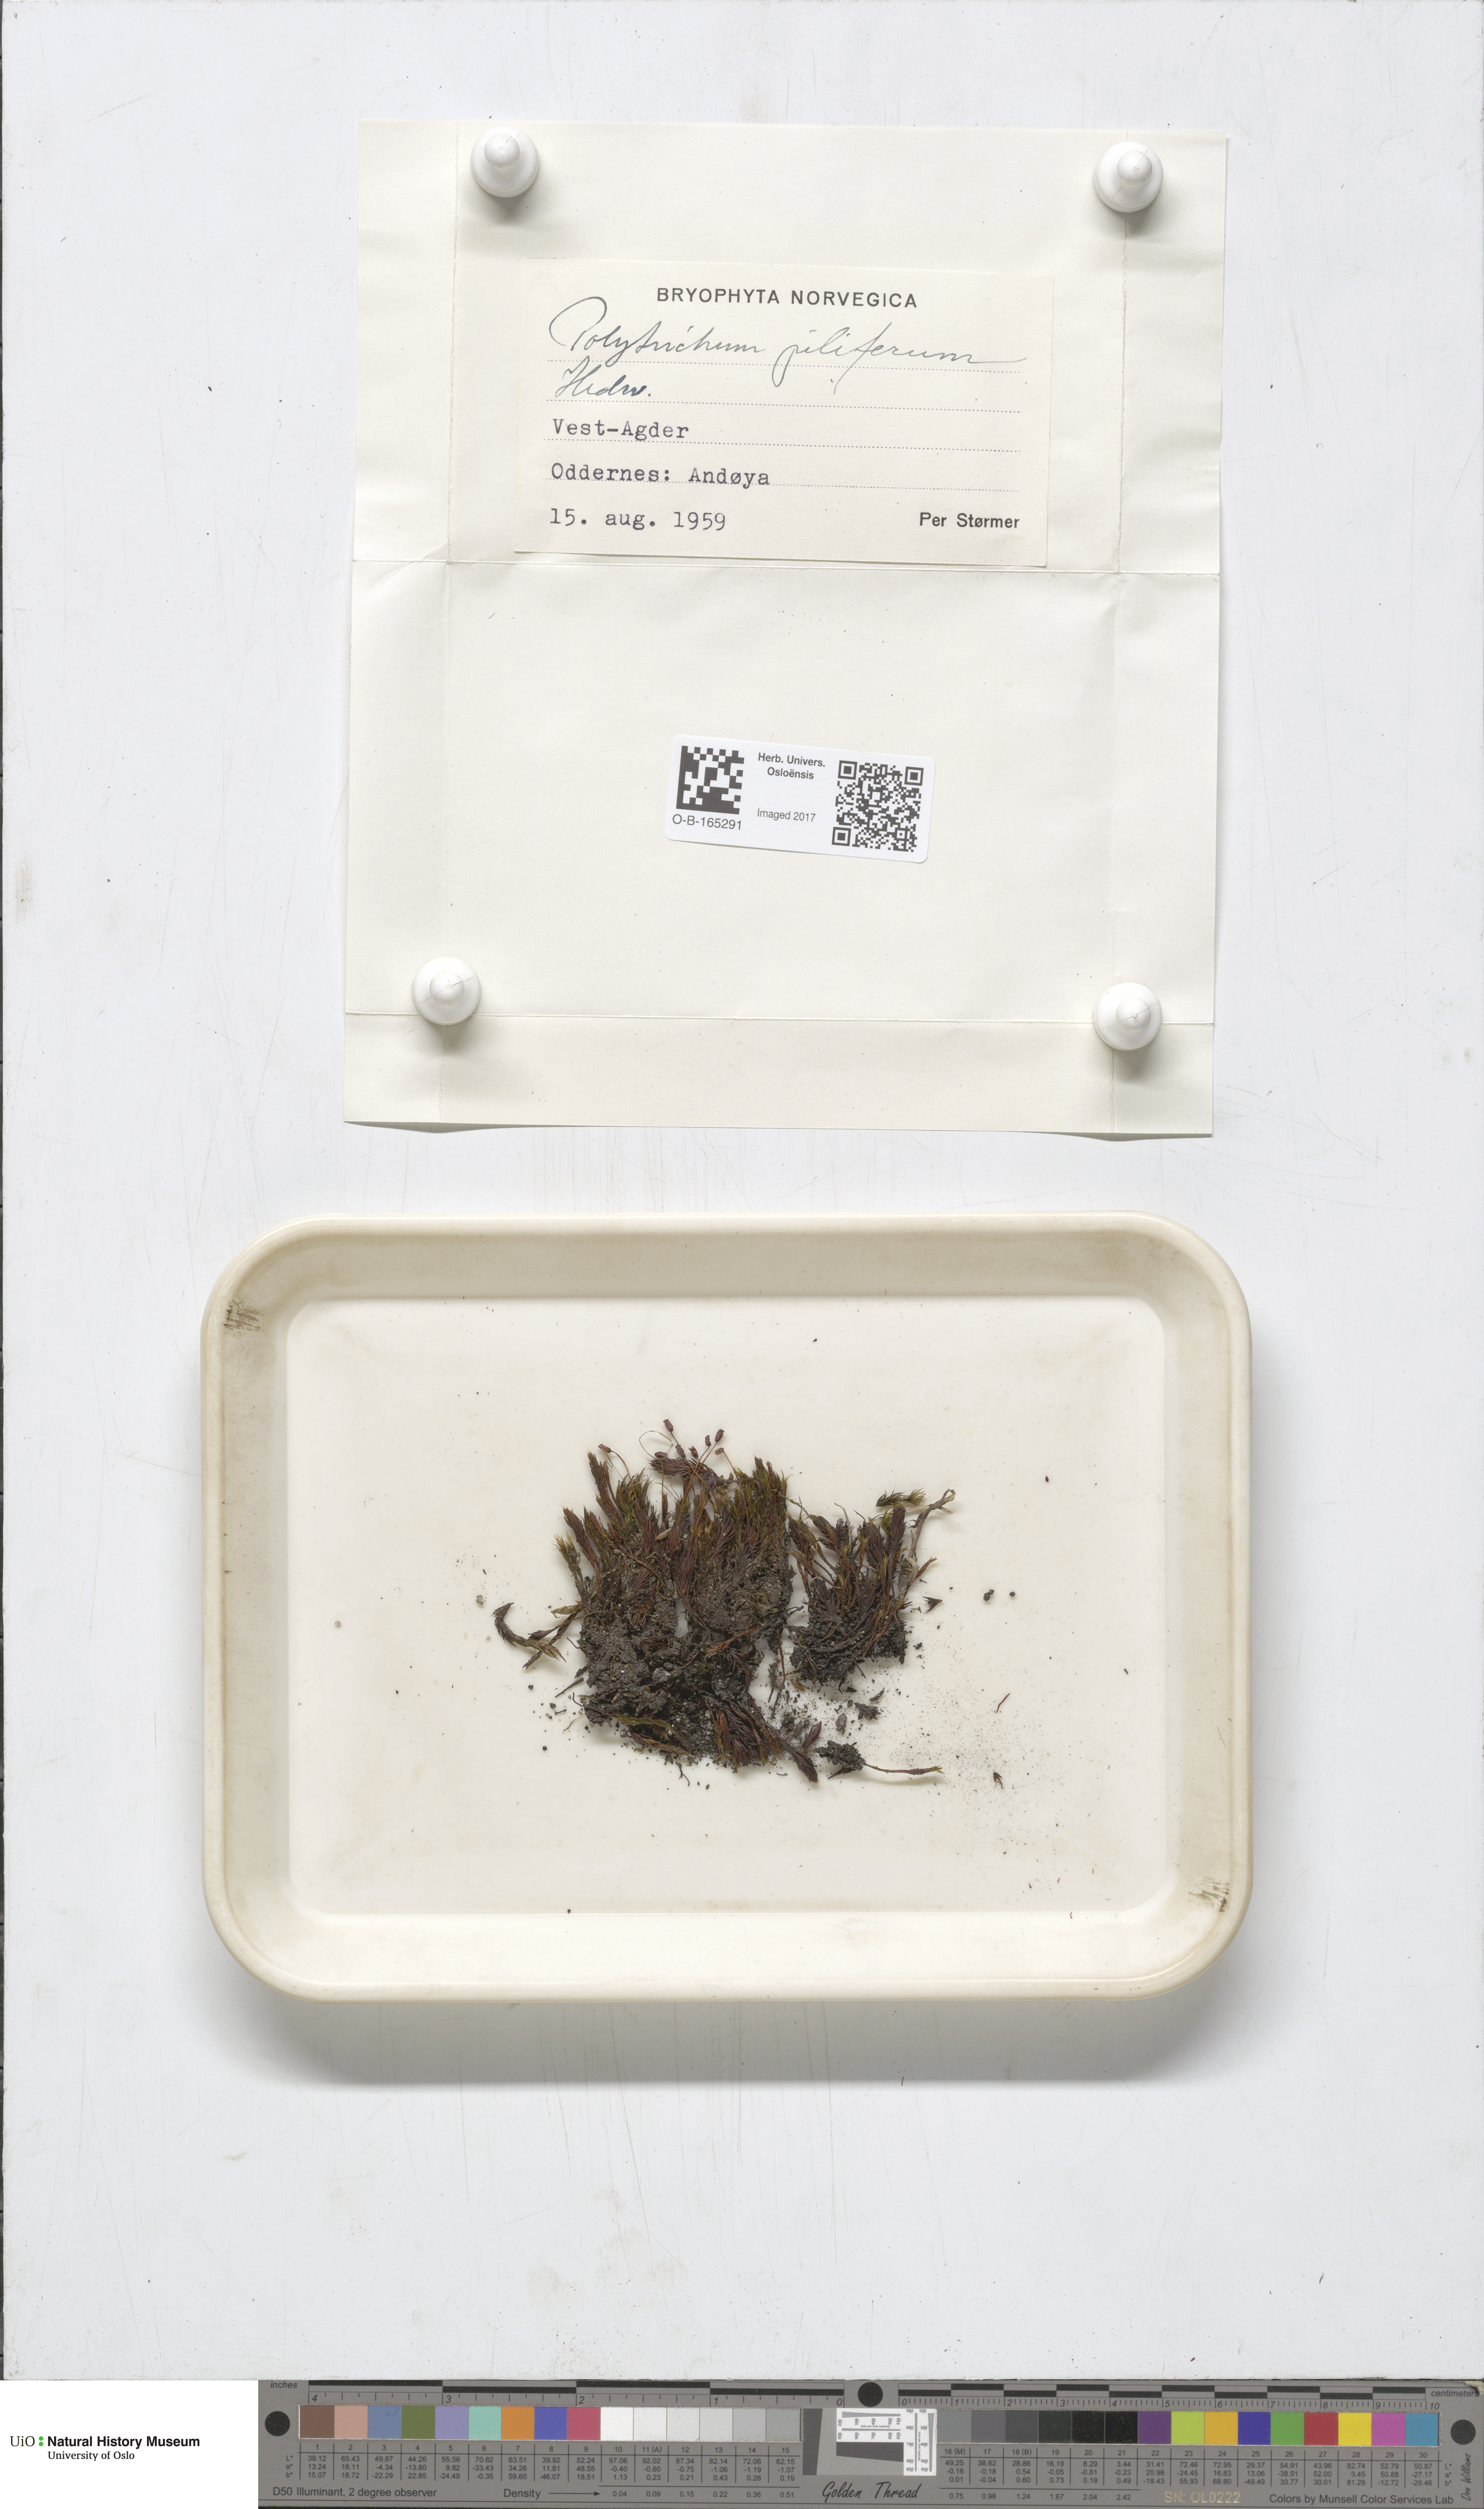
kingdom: Plantae
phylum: Bryophyta
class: Polytrichopsida
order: Polytrichales
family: Polytrichaceae
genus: Polytrichum
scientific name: Polytrichum piliferum
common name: Bristly haircap
